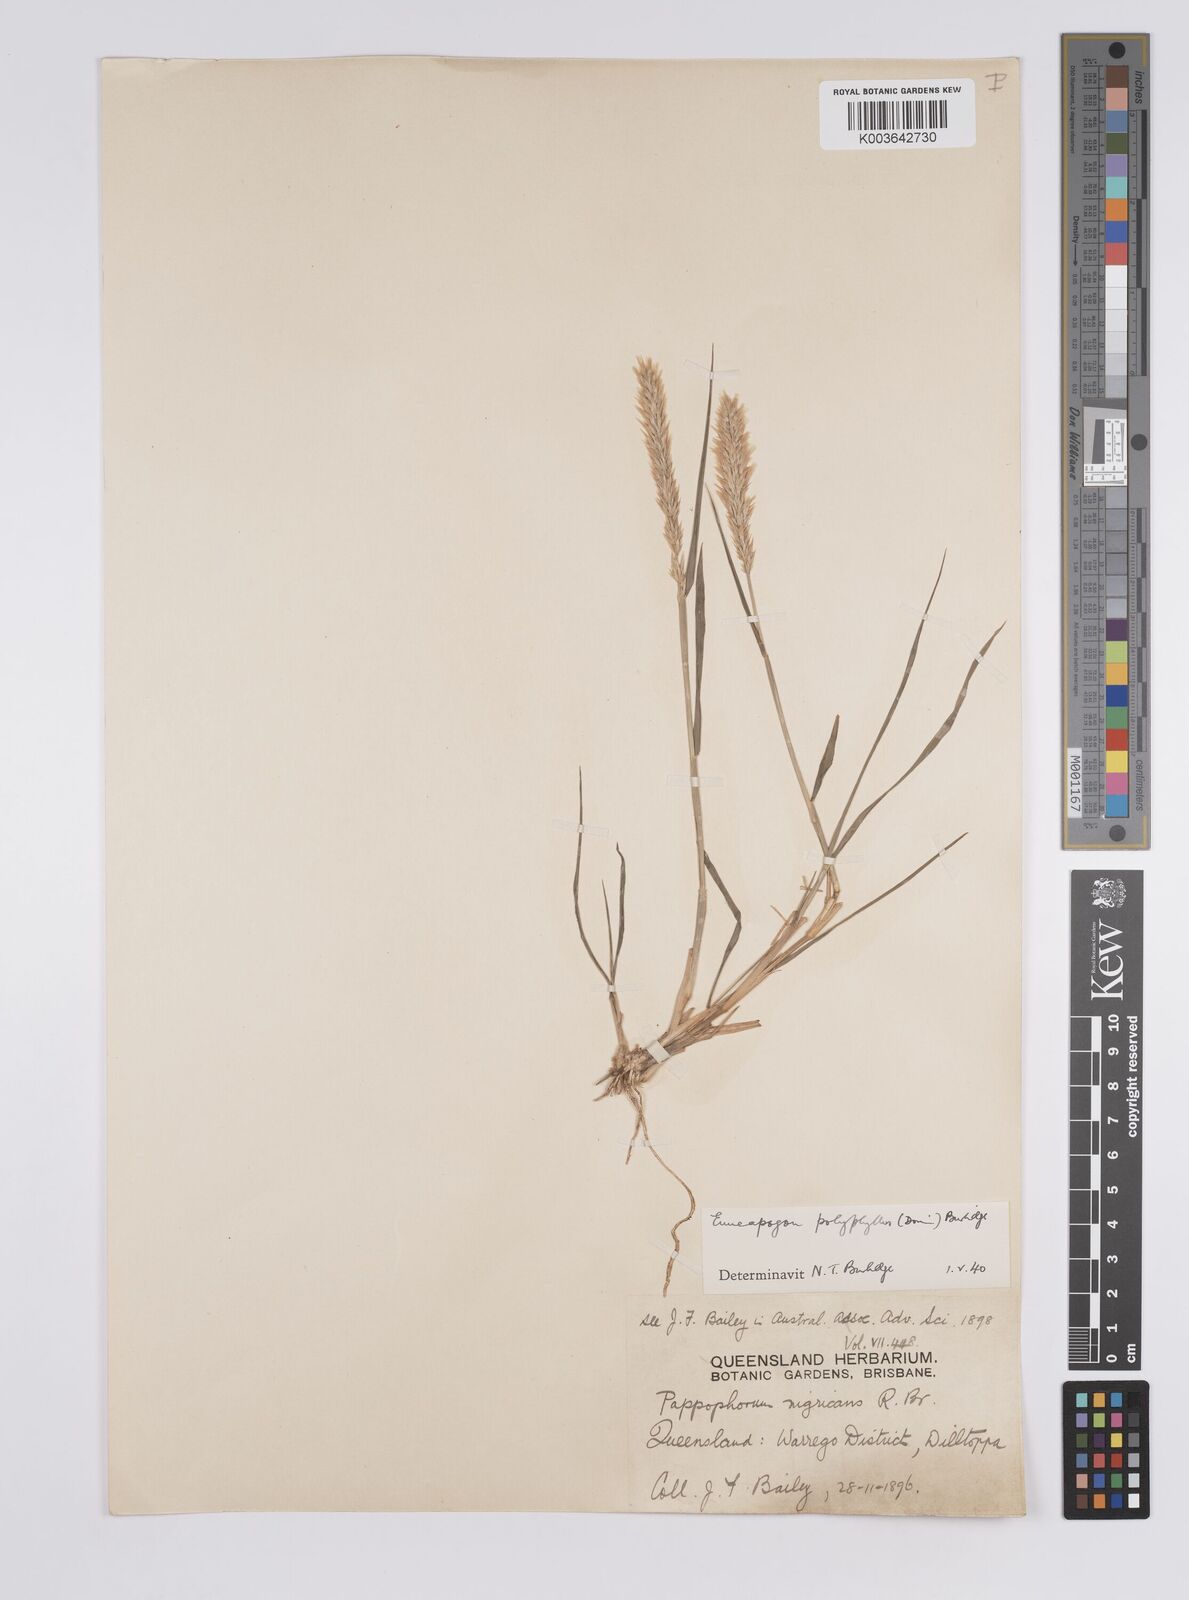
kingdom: Plantae
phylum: Tracheophyta
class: Liliopsida
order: Poales
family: Poaceae
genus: Enneapogon
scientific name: Enneapogon polyphyllus
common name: Leafy nineawn
